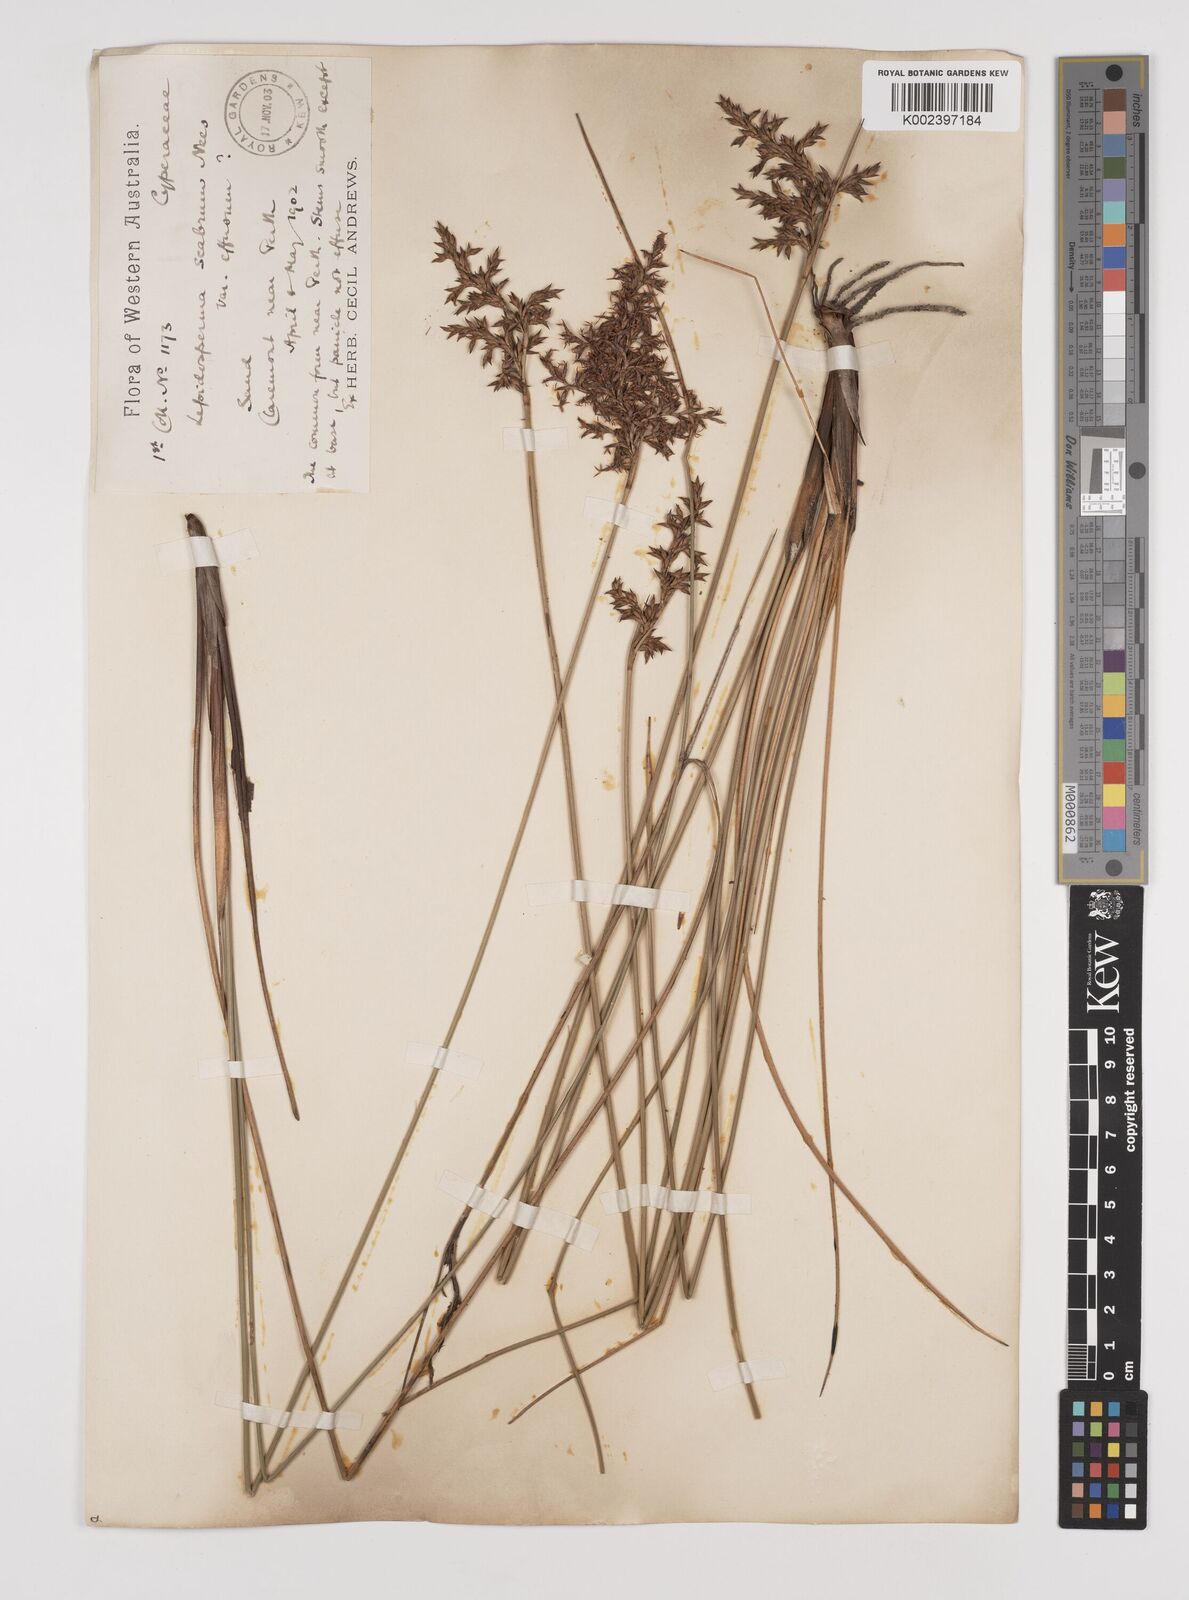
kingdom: Plantae
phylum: Tracheophyta
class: Liliopsida
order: Poales
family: Cyperaceae
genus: Lepidosperma
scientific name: Lepidosperma scabrum
